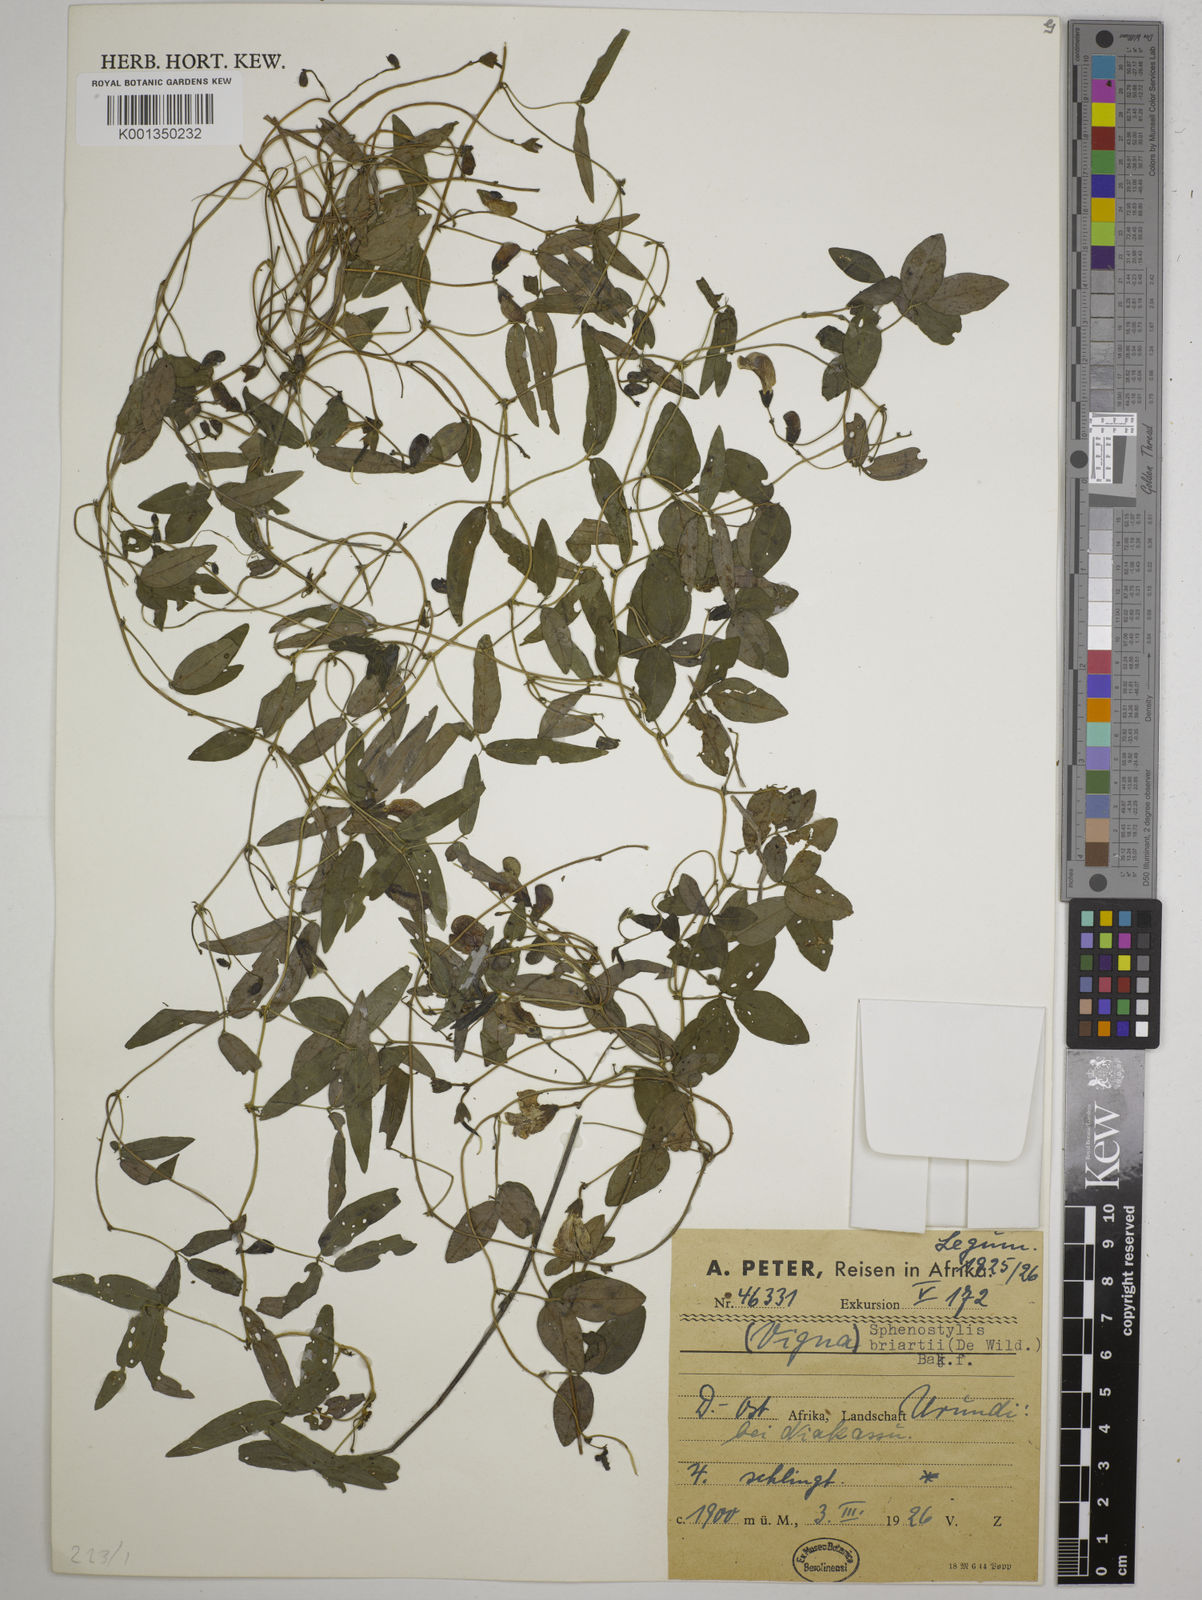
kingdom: Plantae
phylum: Tracheophyta
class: Magnoliopsida
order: Fabales
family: Fabaceae
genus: Sphenostylis
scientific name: Sphenostylis briartii
